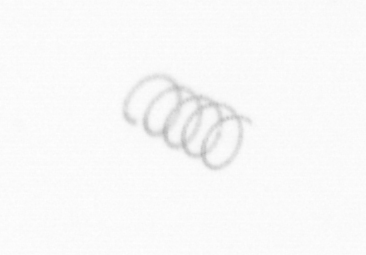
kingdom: Chromista
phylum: Ochrophyta
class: Bacillariophyceae
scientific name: Bacillariophyceae
